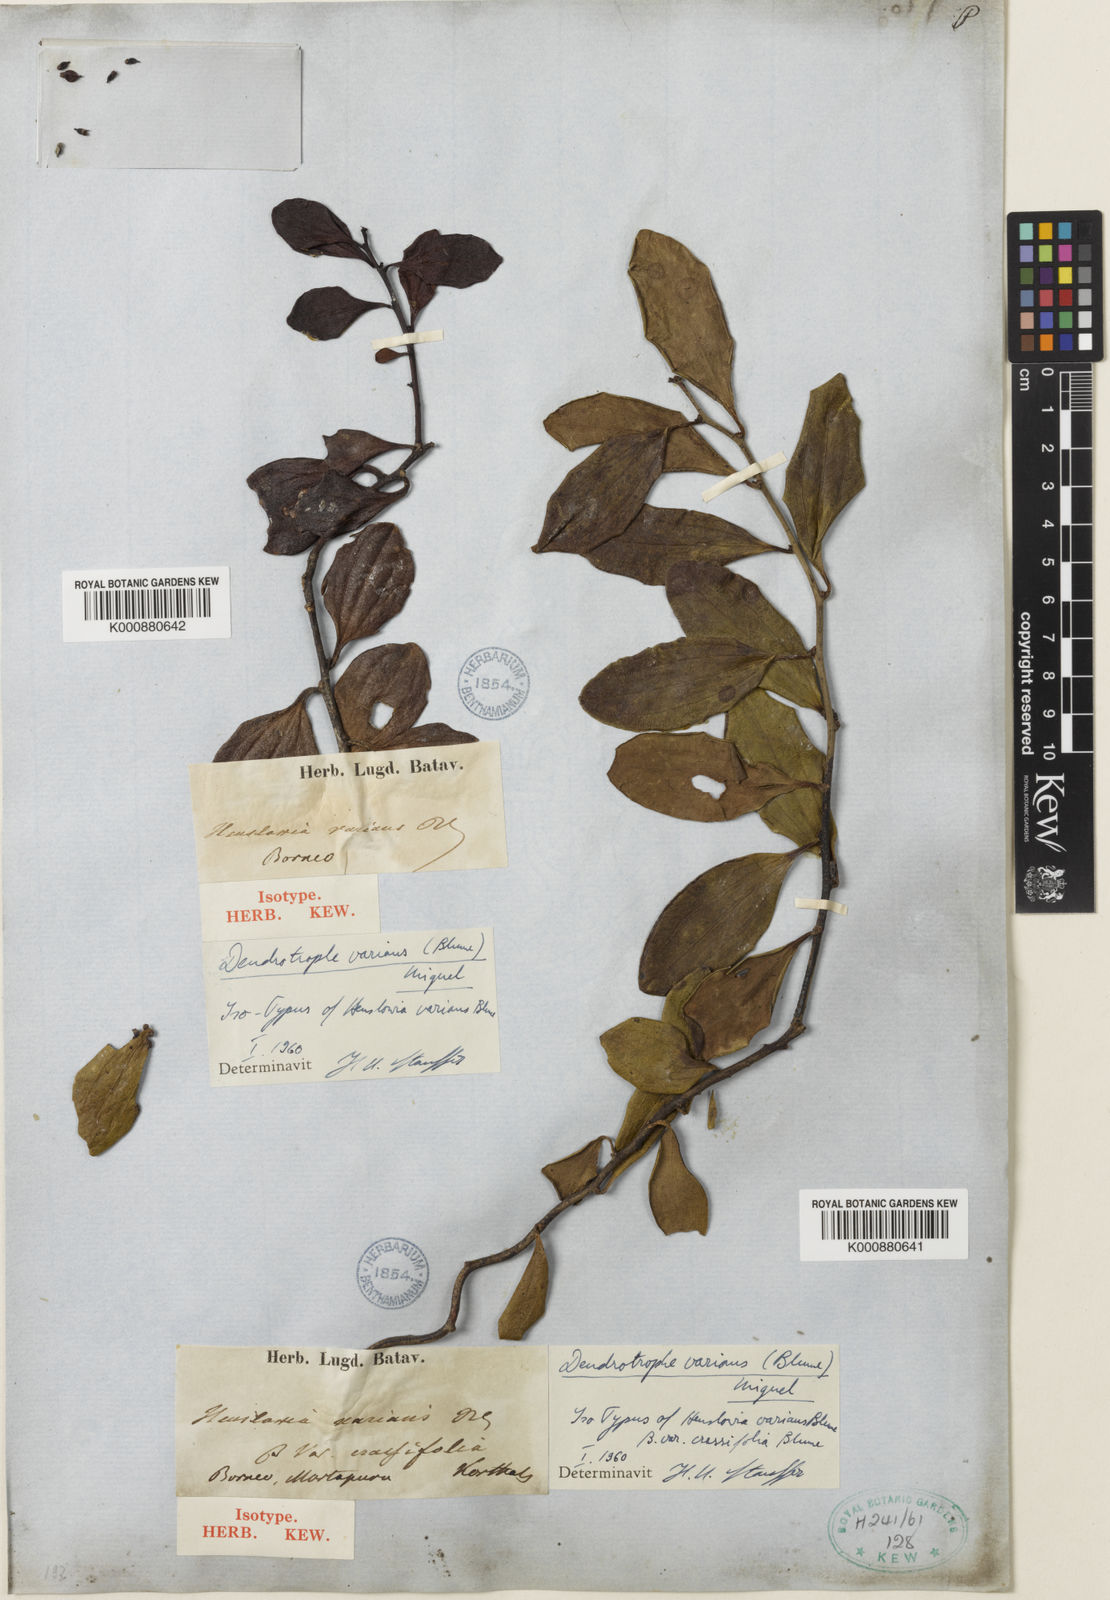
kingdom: Plantae
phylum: Tracheophyta
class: Magnoliopsida
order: Santalales
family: Amphorogynaceae
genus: Dendrotrophe
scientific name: Dendrotrophe varians
